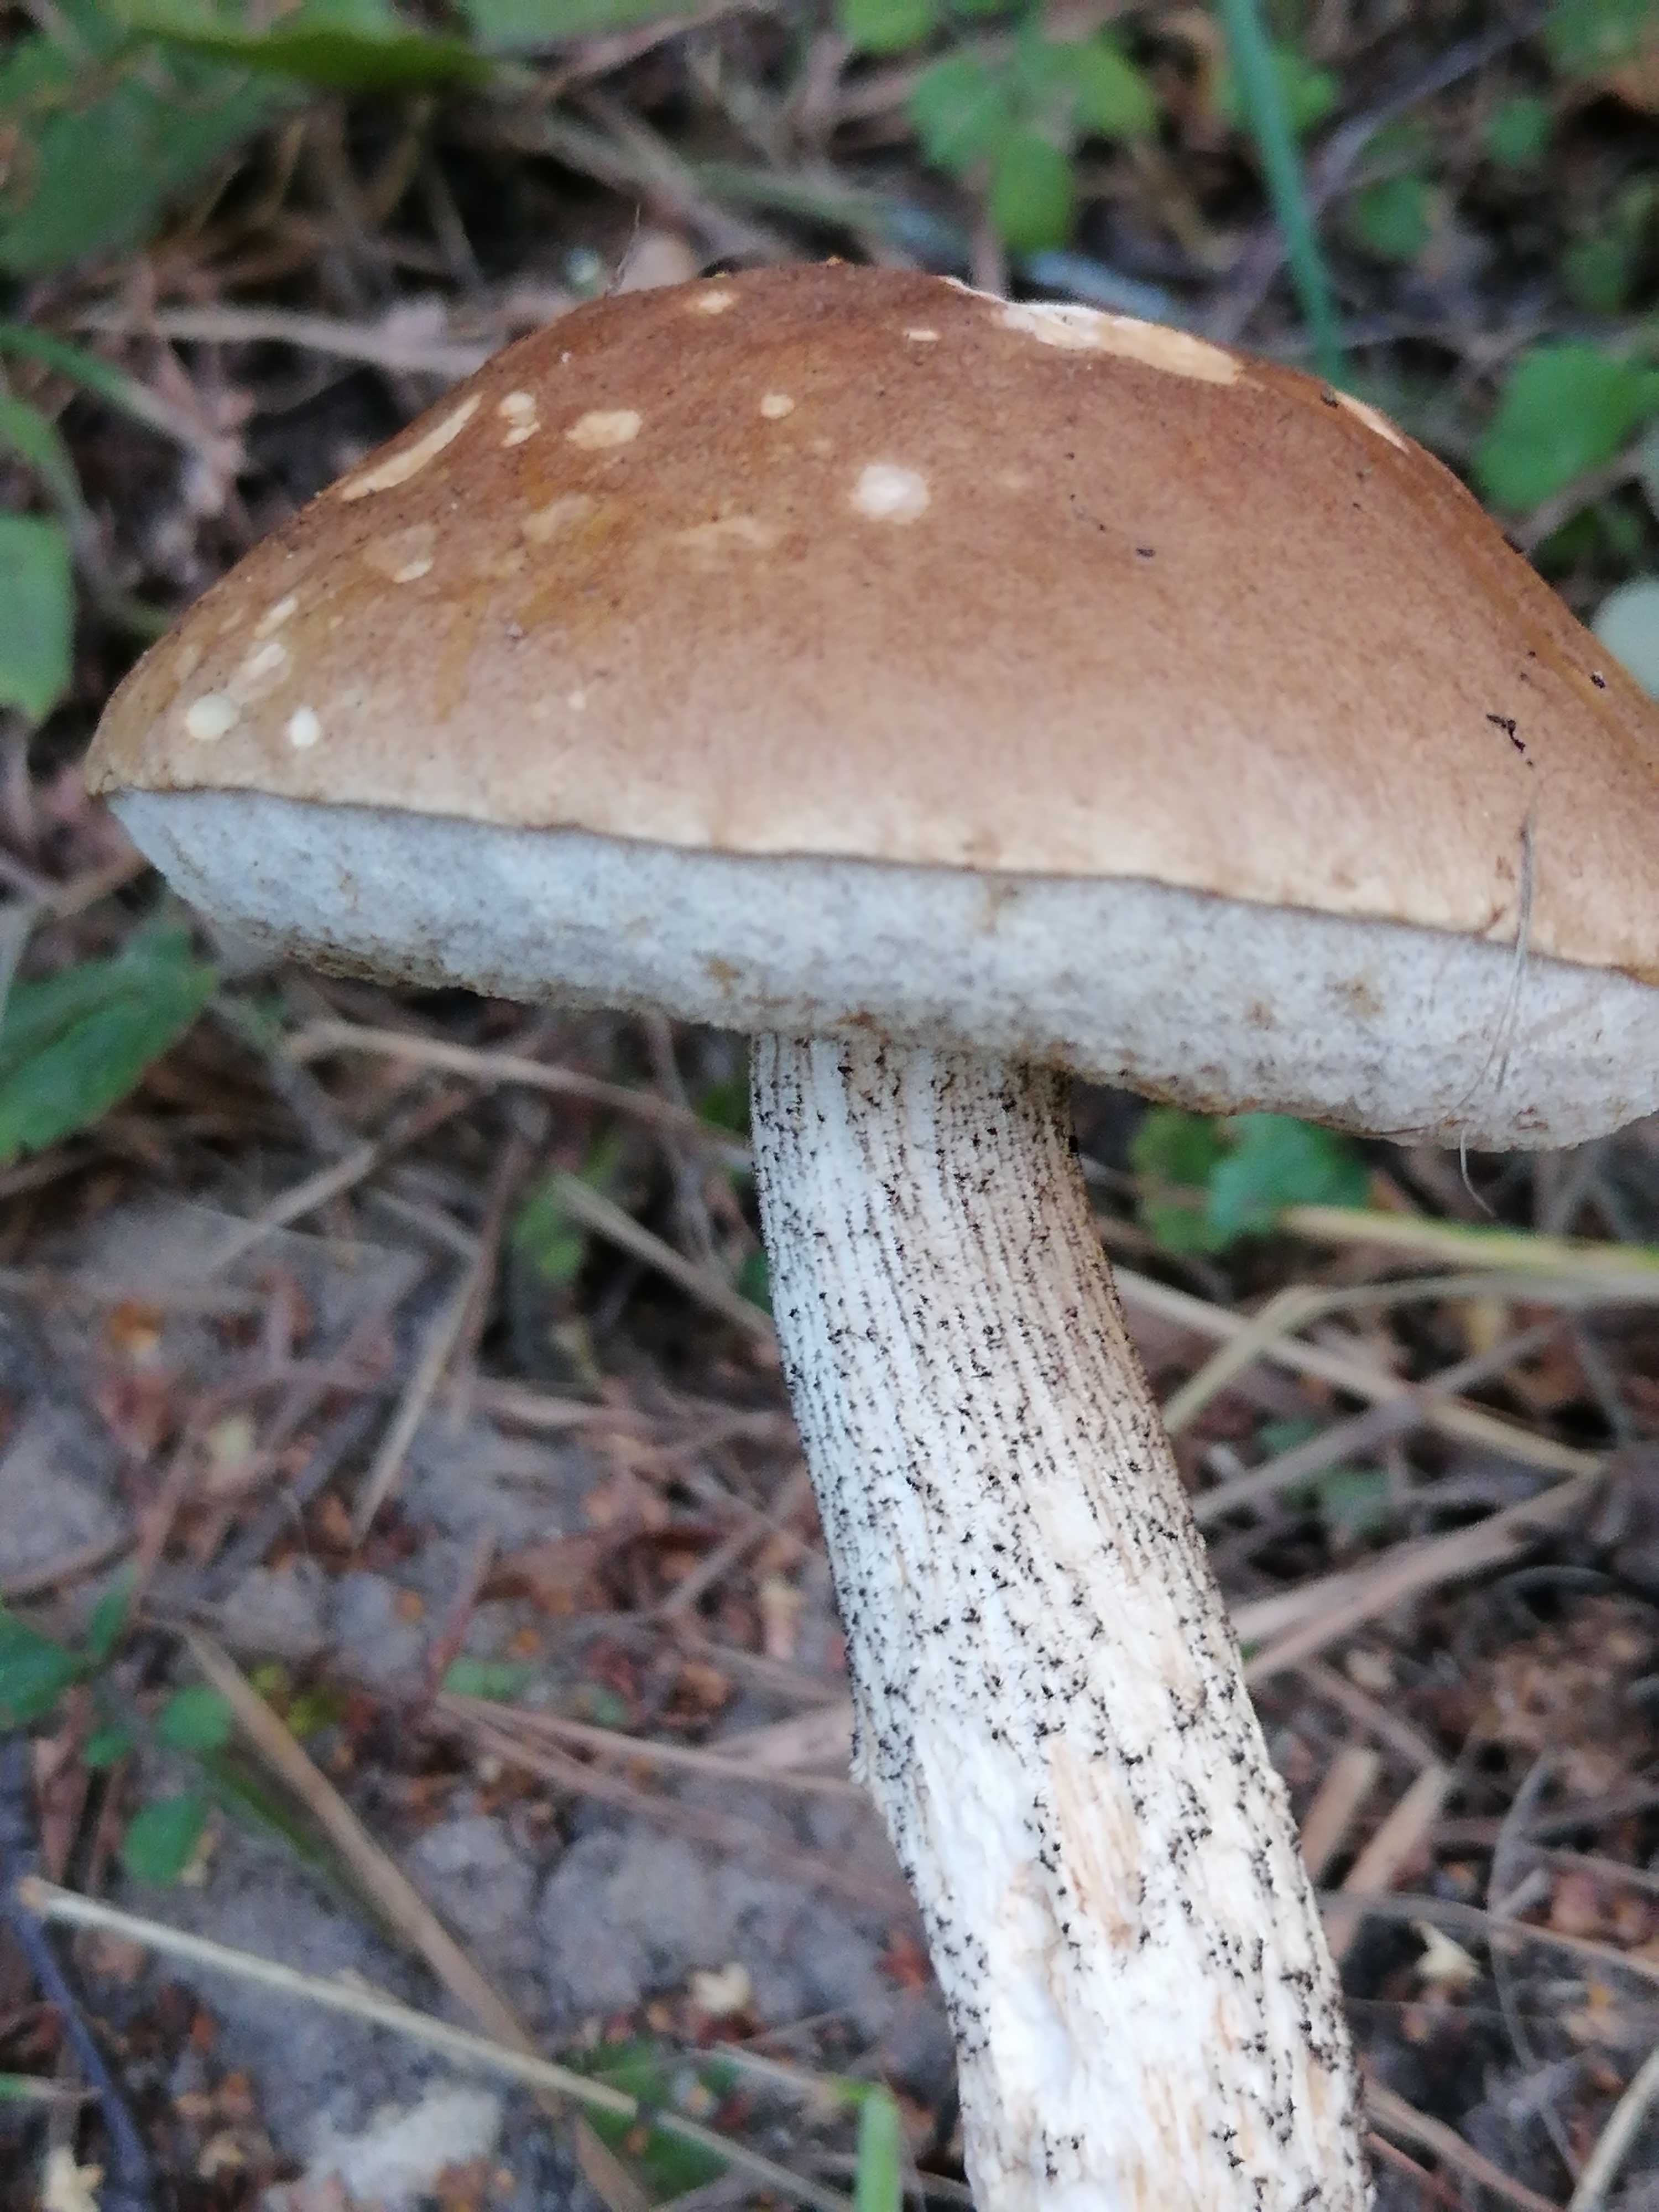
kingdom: Fungi
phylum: Basidiomycota
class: Agaricomycetes
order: Boletales
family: Boletaceae
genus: Leccinum
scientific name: Leccinum scabrum
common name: brun skælrørhat
